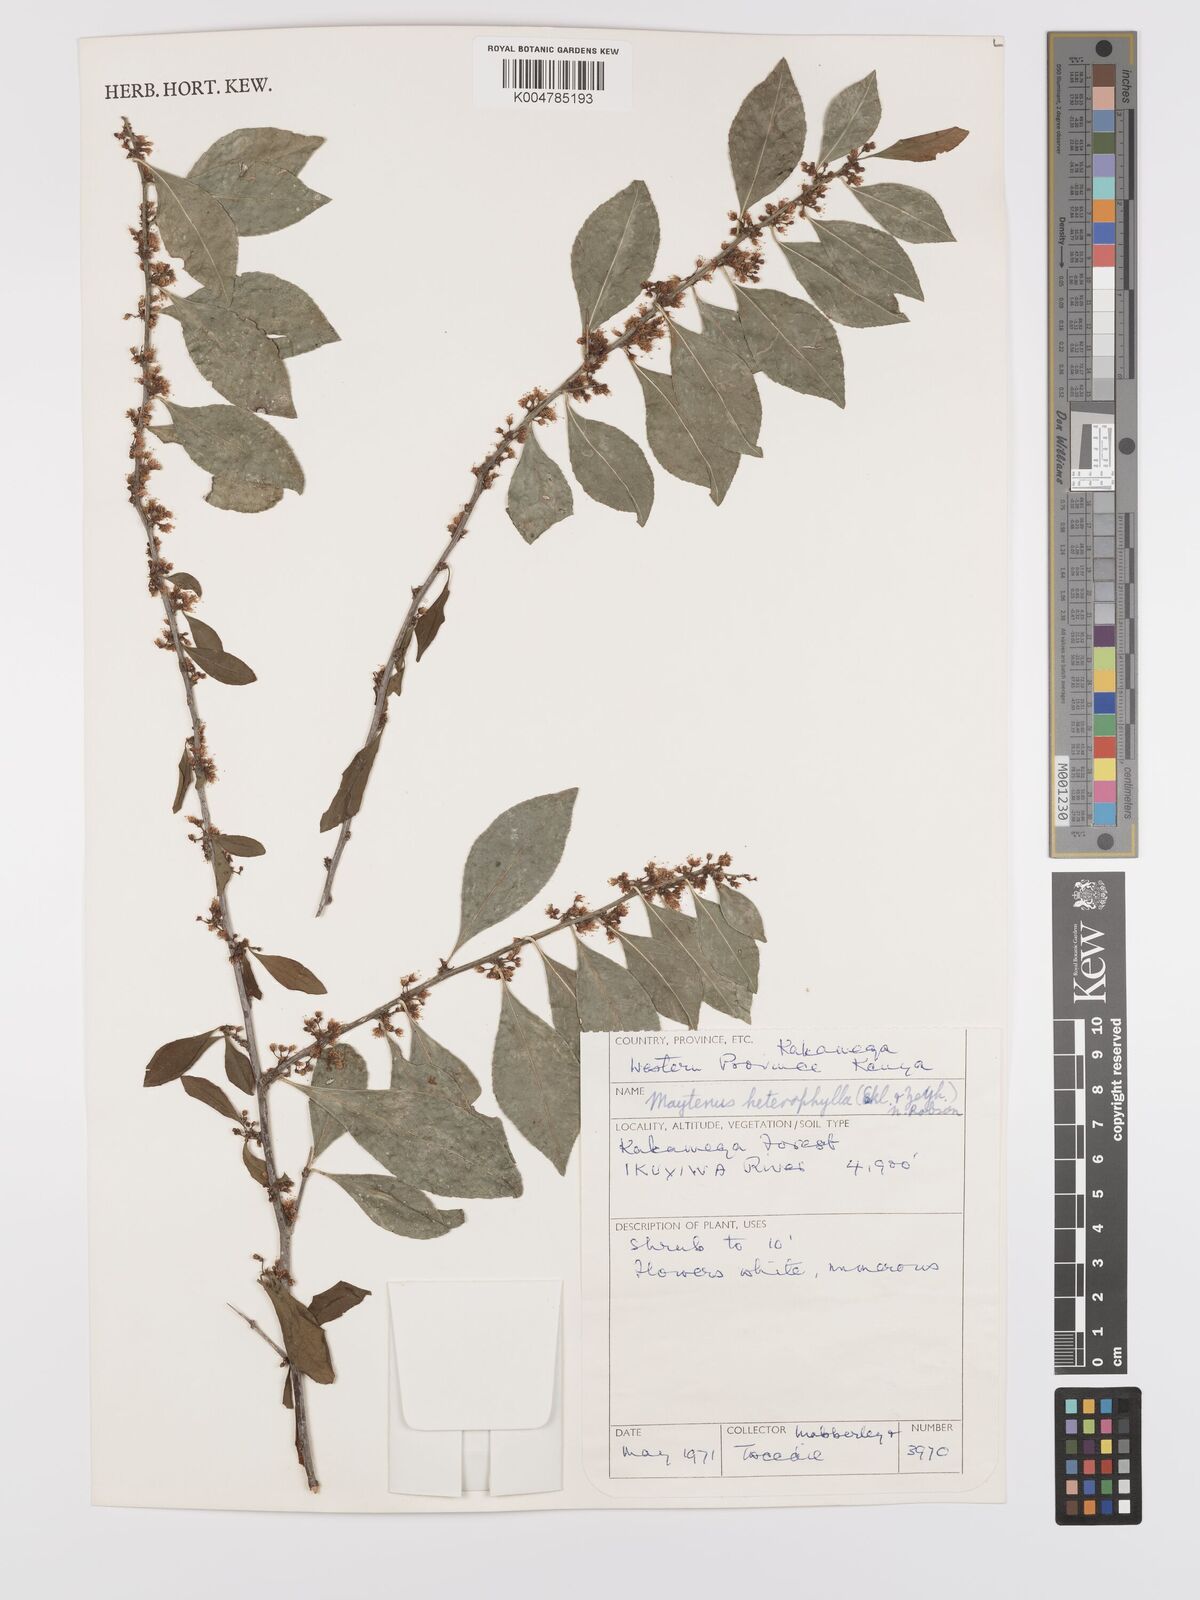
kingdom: Plantae
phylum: Tracheophyta
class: Magnoliopsida
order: Celastrales
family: Celastraceae
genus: Gymnosporia
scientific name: Gymnosporia heterophylla
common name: Angle-stem spikethorn
